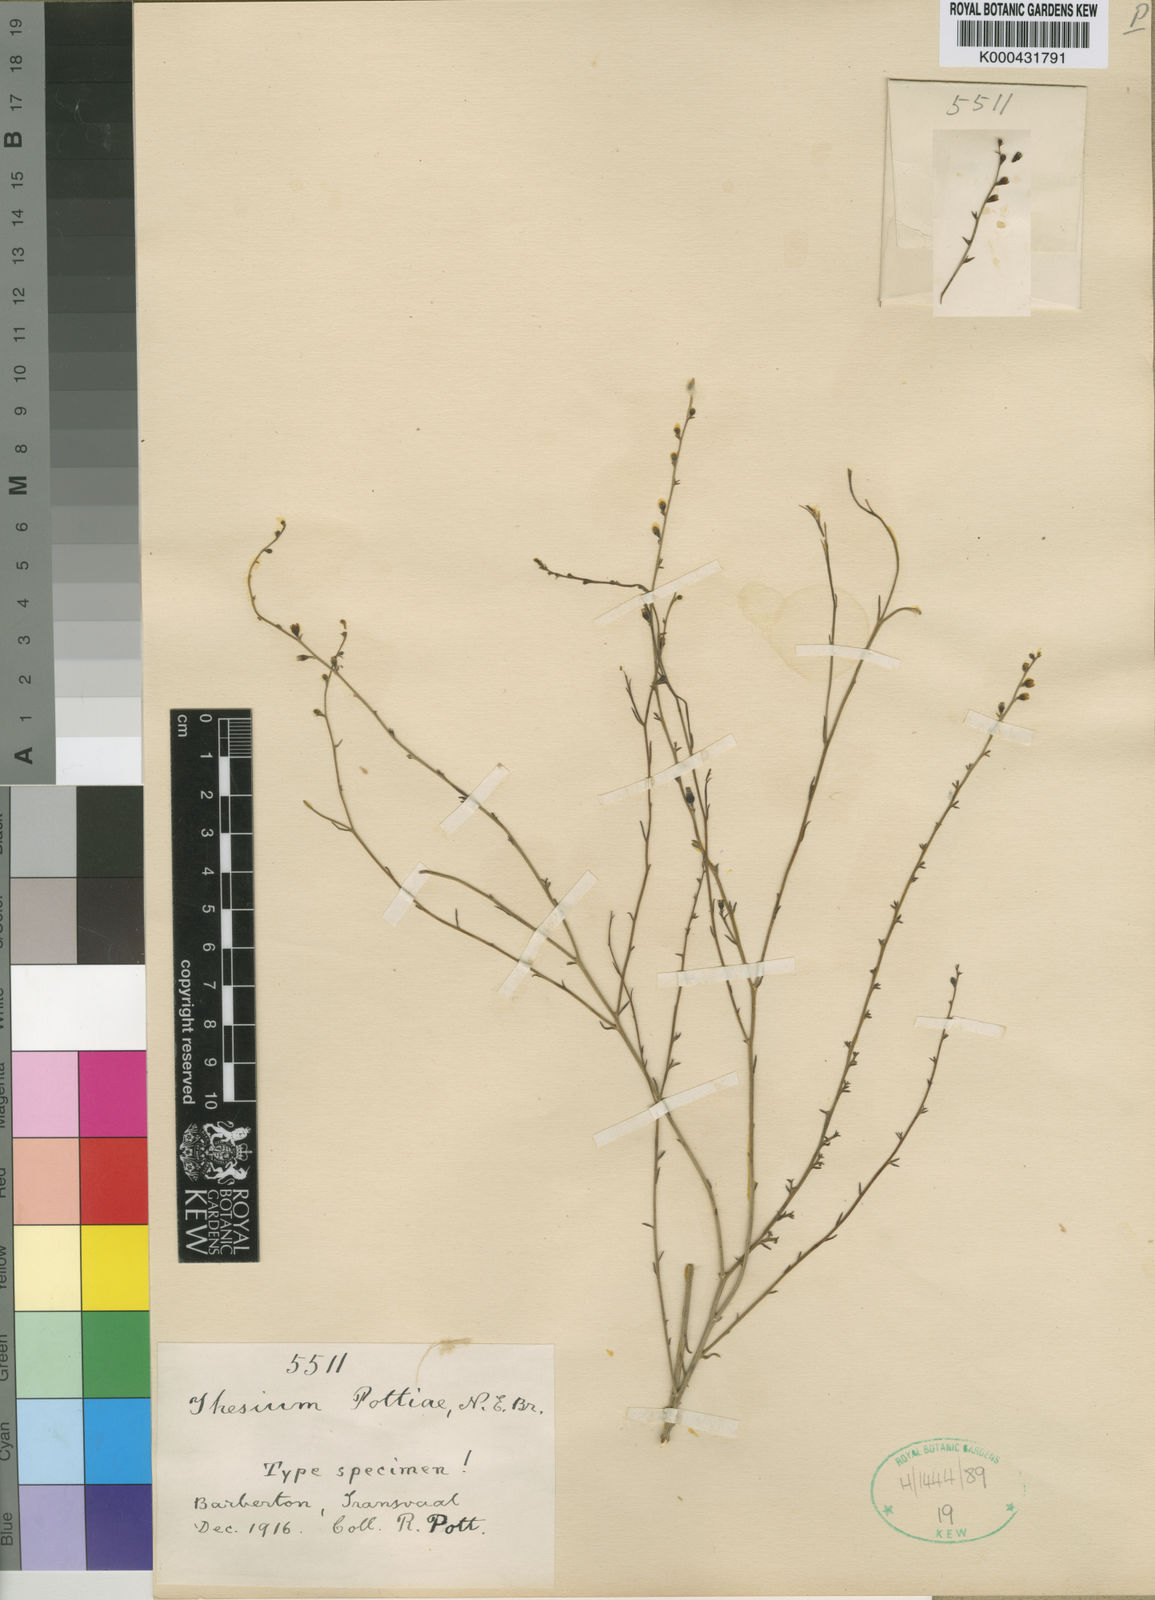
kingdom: Plantae
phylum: Tracheophyta
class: Magnoliopsida
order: Santalales
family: Thesiaceae
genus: Thesium
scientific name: Thesium multiramulosum
